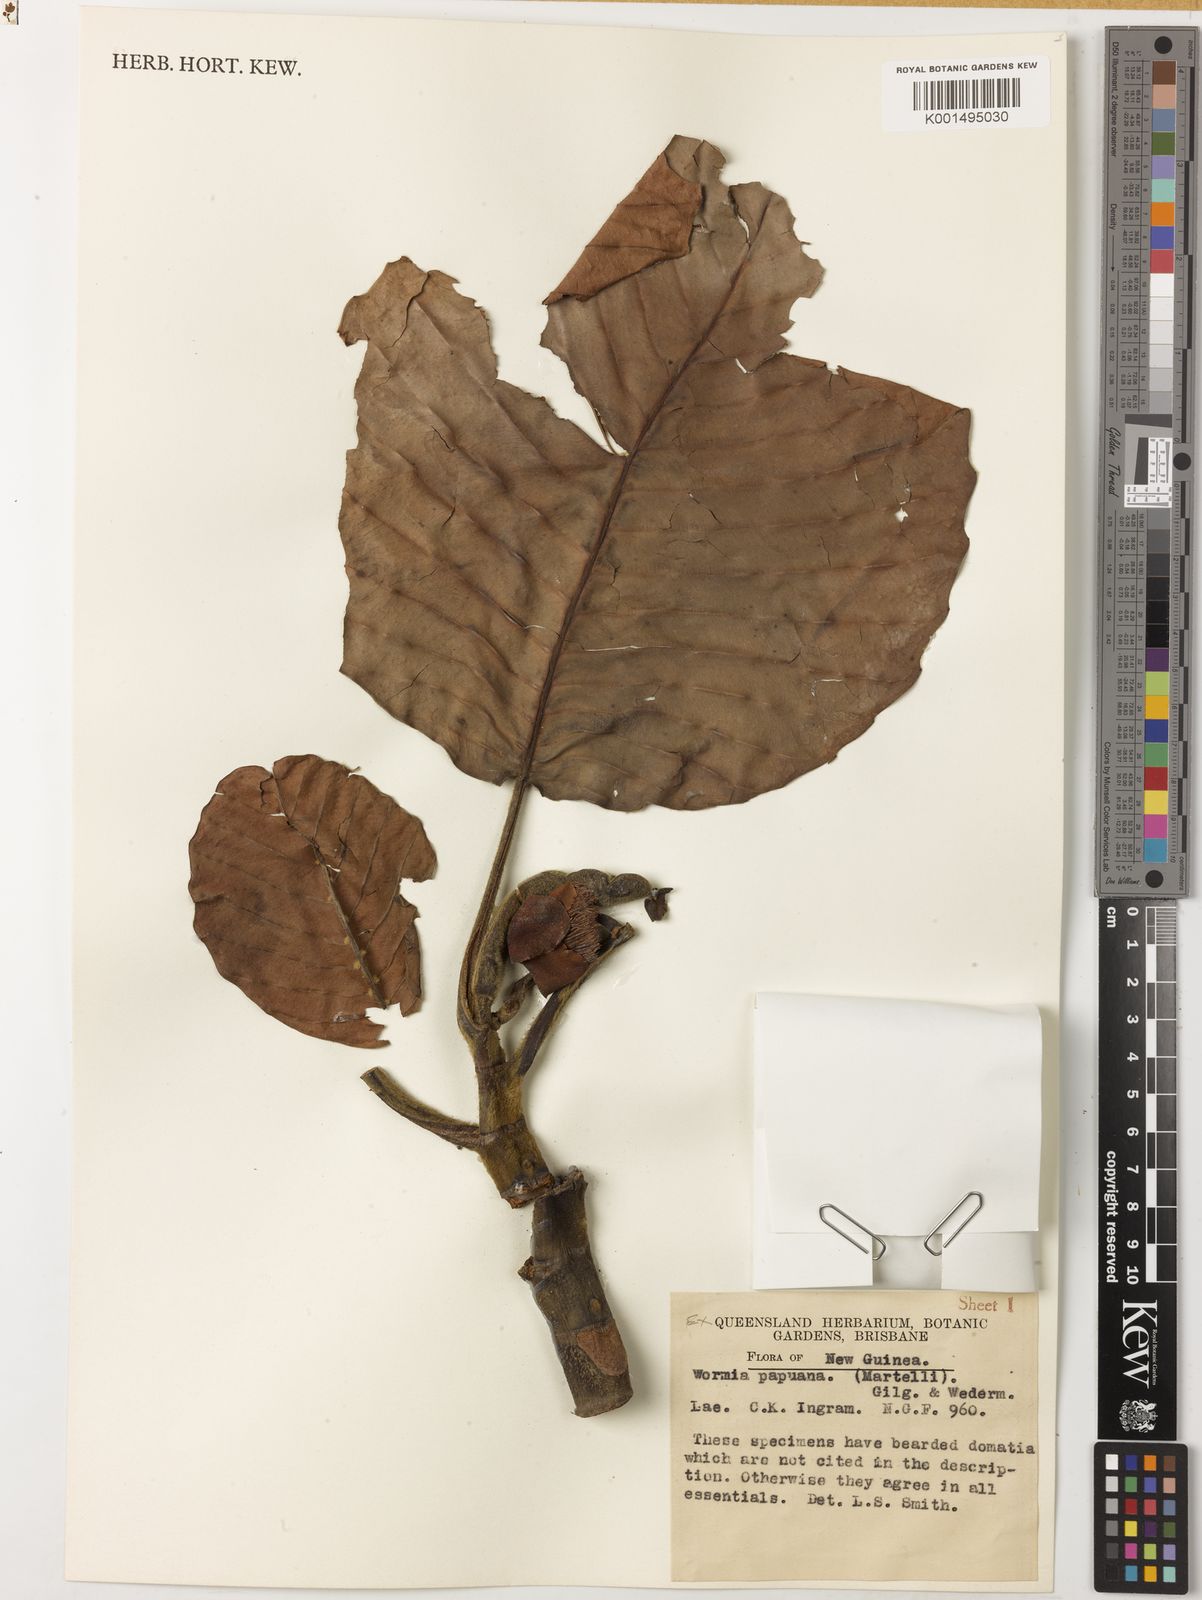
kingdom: Plantae
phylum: Tracheophyta
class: Magnoliopsida
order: Dilleniales
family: Dilleniaceae
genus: Dillenia
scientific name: Dillenia papuana
